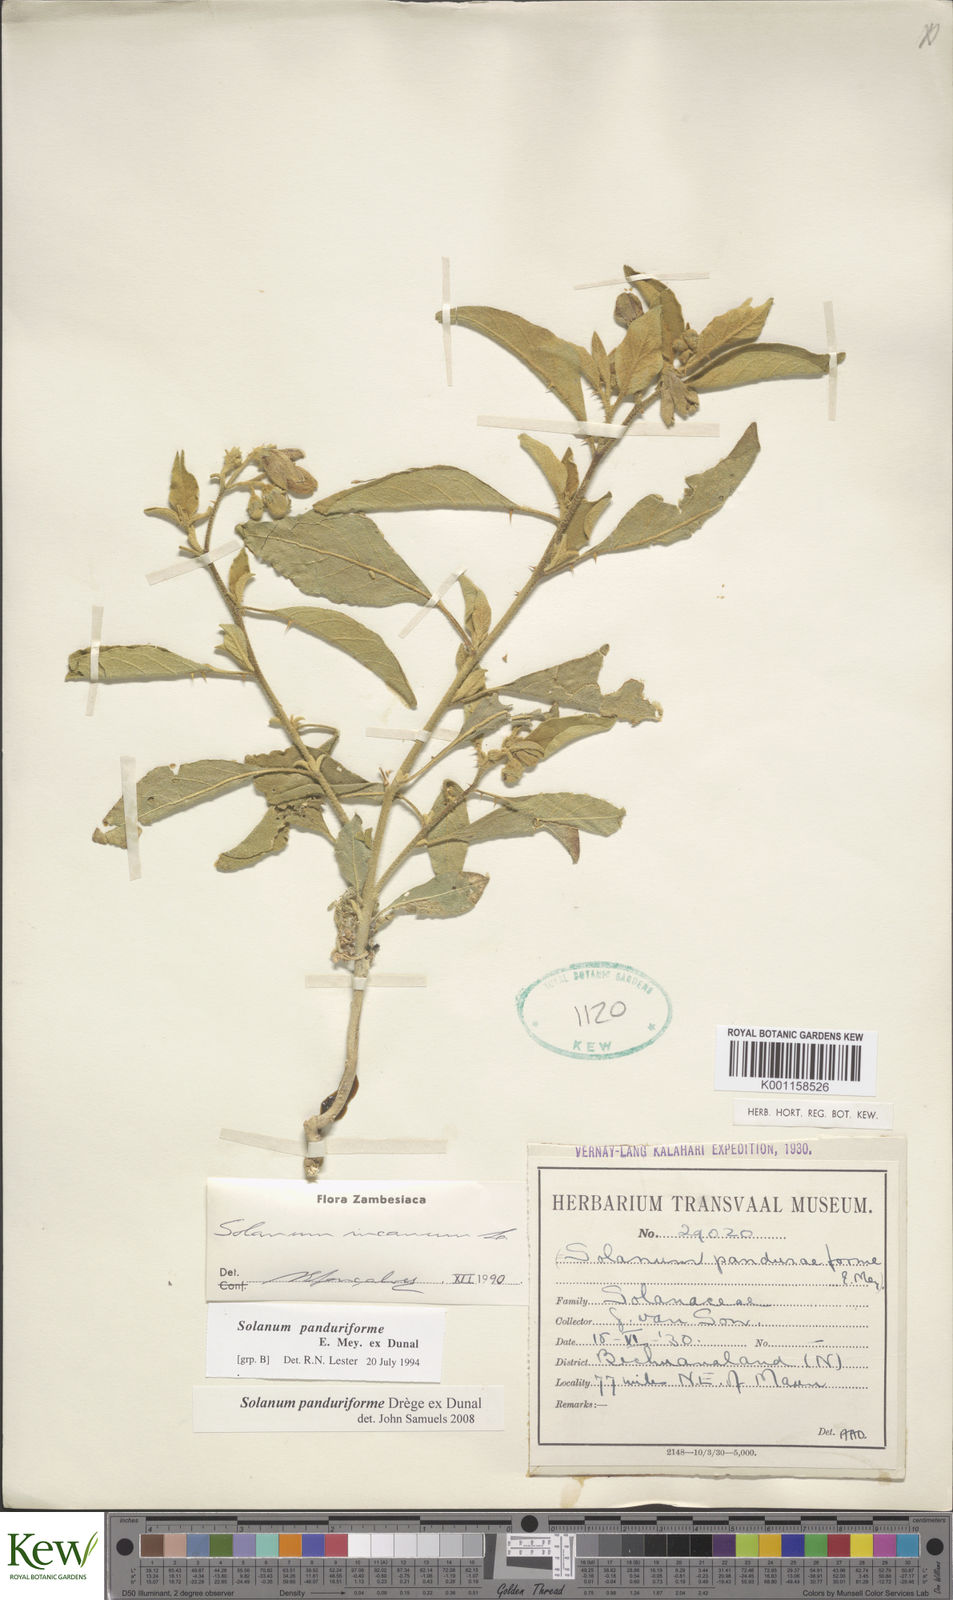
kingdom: Plantae
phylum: Tracheophyta
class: Magnoliopsida
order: Solanales
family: Solanaceae
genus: Solanum
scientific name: Solanum campylacanthum
